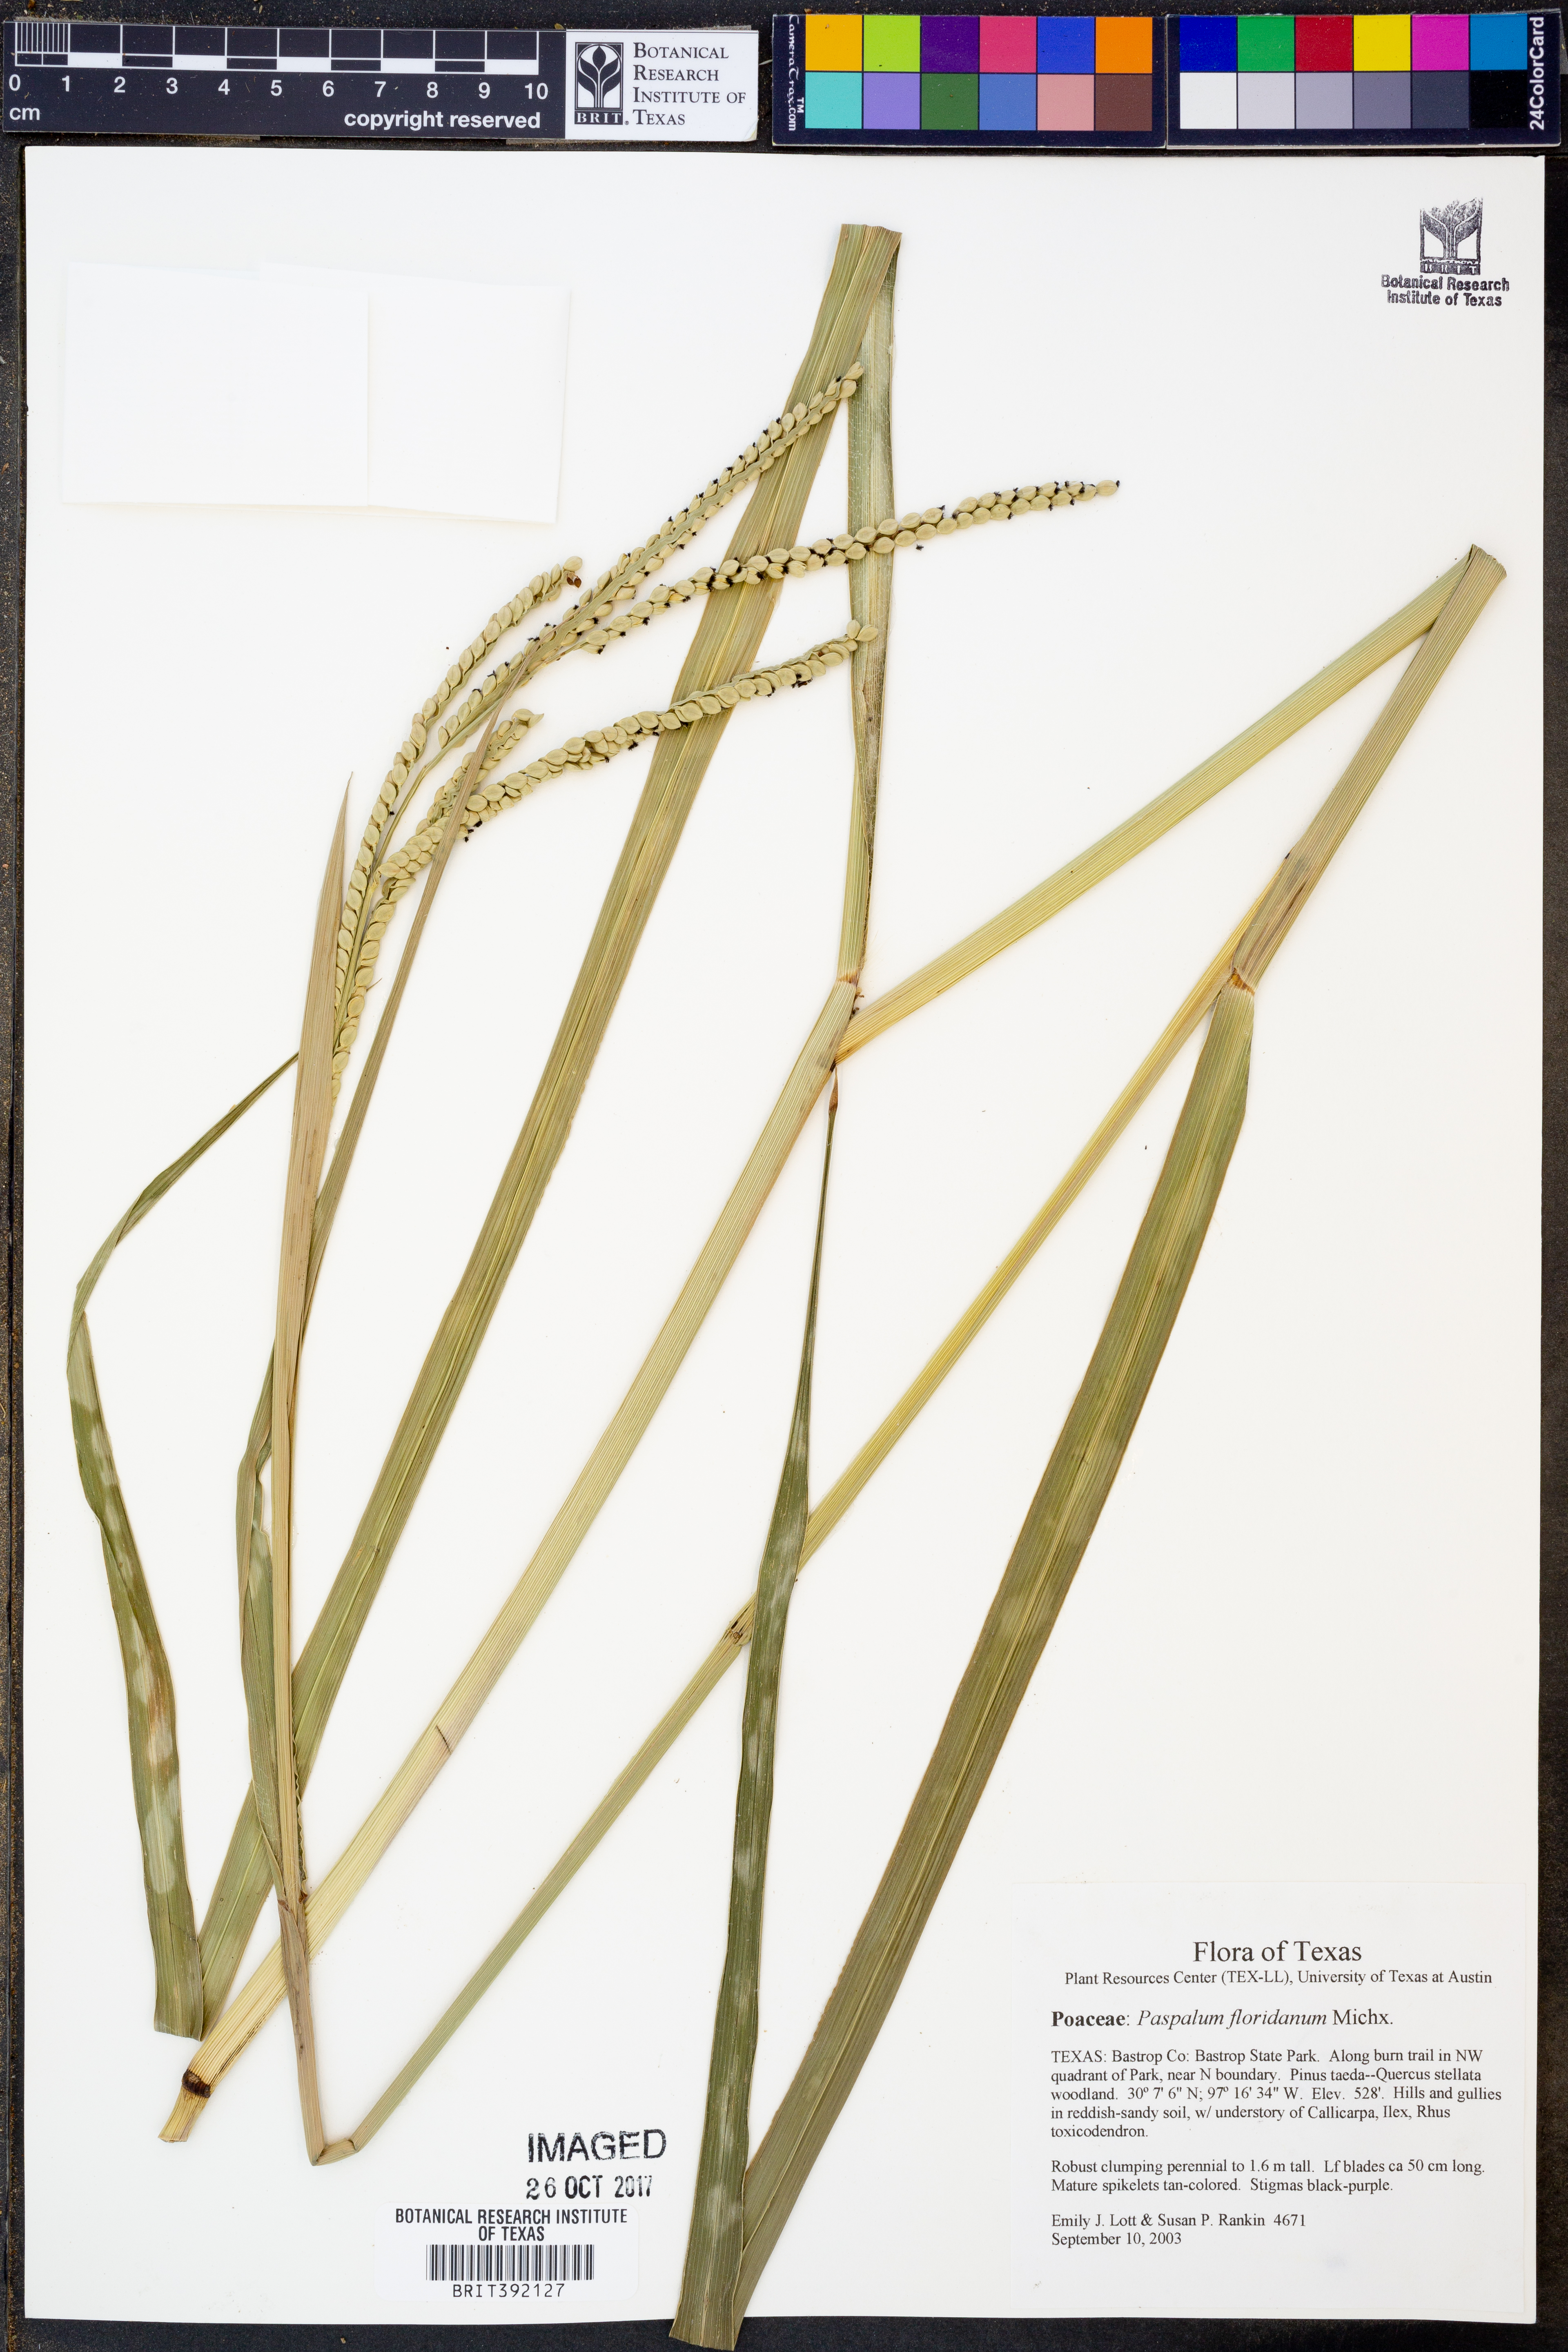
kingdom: Plantae
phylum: Tracheophyta
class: Liliopsida
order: Poales
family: Poaceae
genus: Paspalum
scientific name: Paspalum floridanum
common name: Florida paspalum
